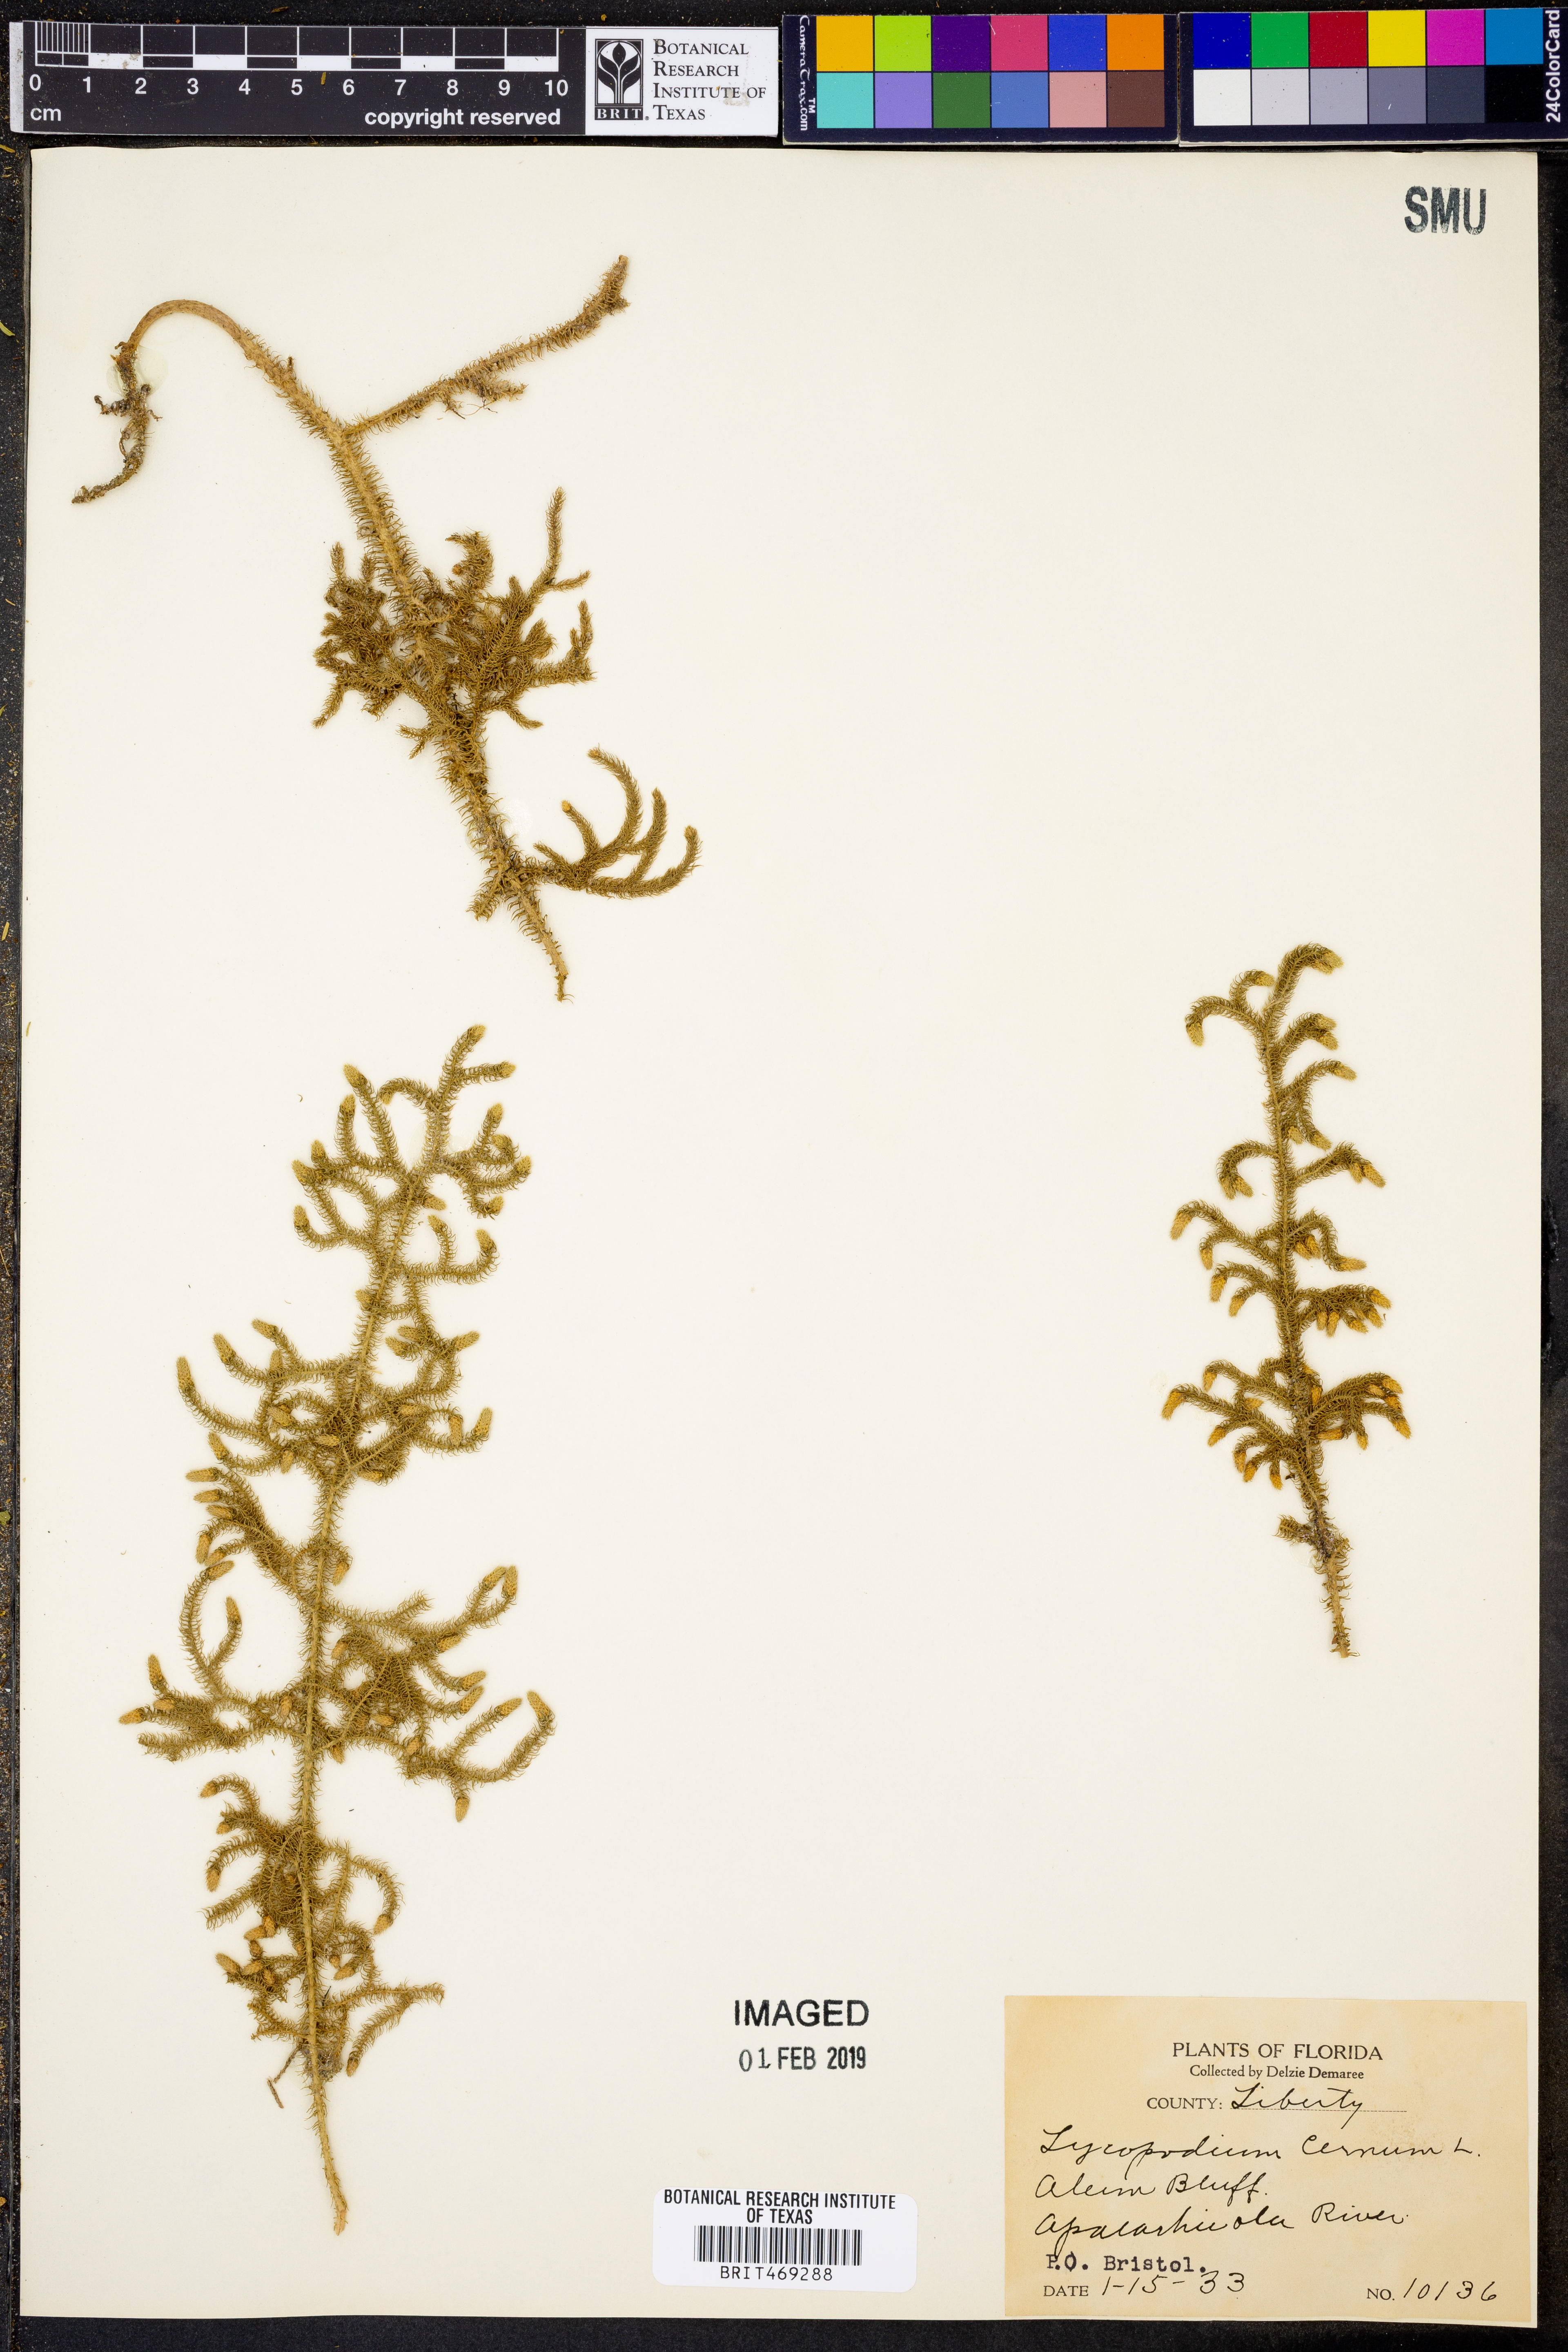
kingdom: Plantae
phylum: Tracheophyta
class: Lycopodiopsida
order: Lycopodiales
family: Lycopodiaceae
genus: Palhinhaea
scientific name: Palhinhaea cernua
